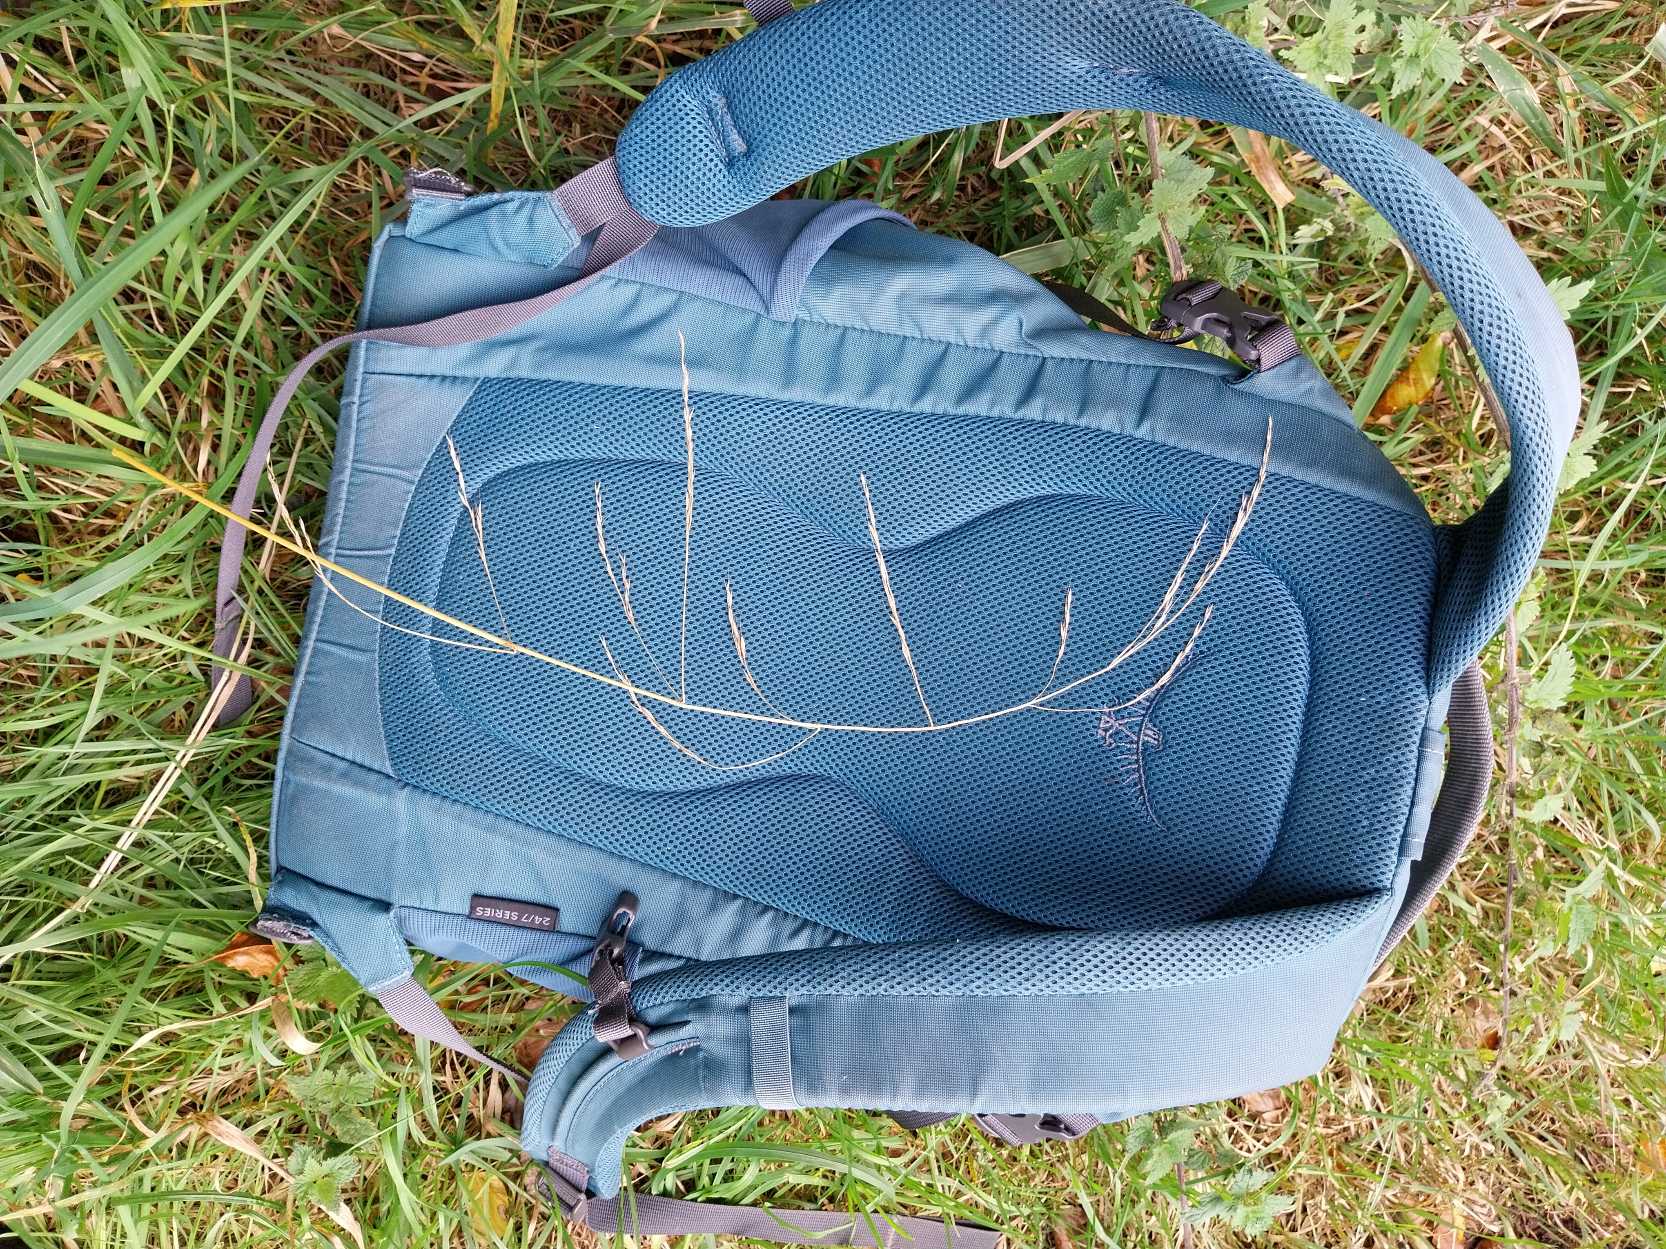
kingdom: Plantae
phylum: Tracheophyta
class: Liliopsida
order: Poales
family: Poaceae
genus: Lolium
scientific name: Lolium giganteum
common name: Kæmpe-svingel
